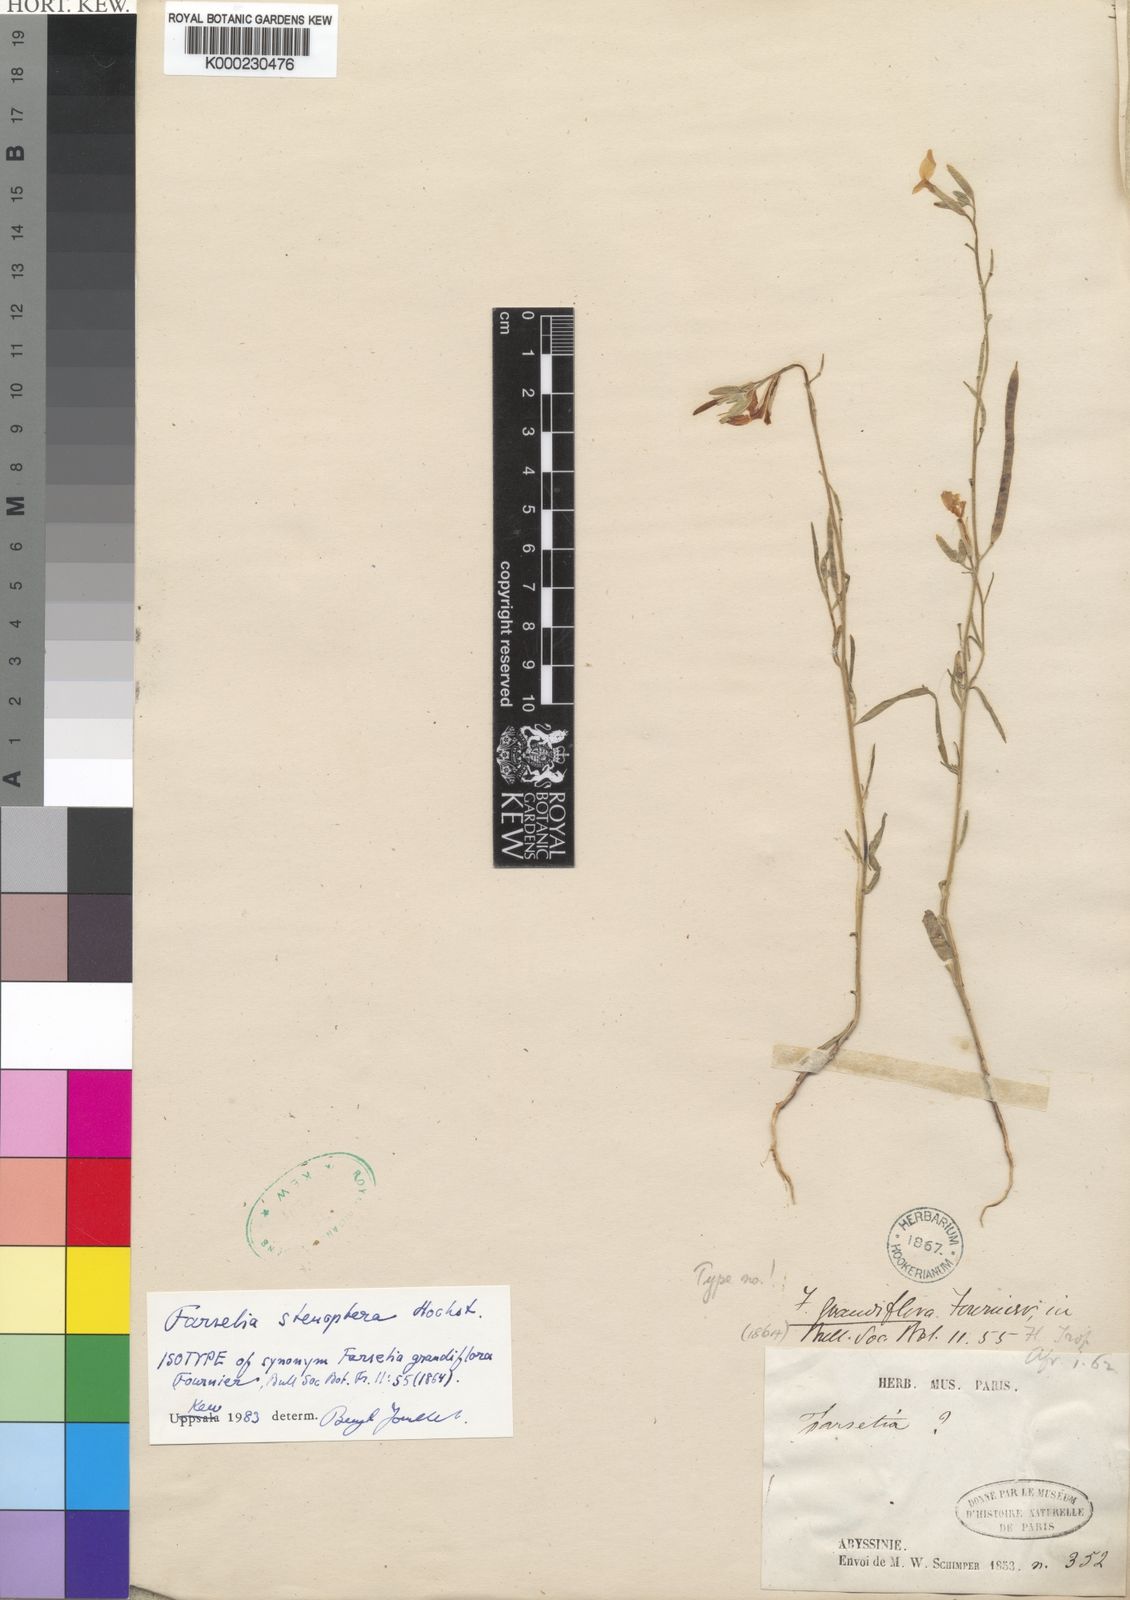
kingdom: Plantae
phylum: Tracheophyta
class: Magnoliopsida
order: Brassicales
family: Brassicaceae
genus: Farsetia
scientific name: Farsetia stenoptera
